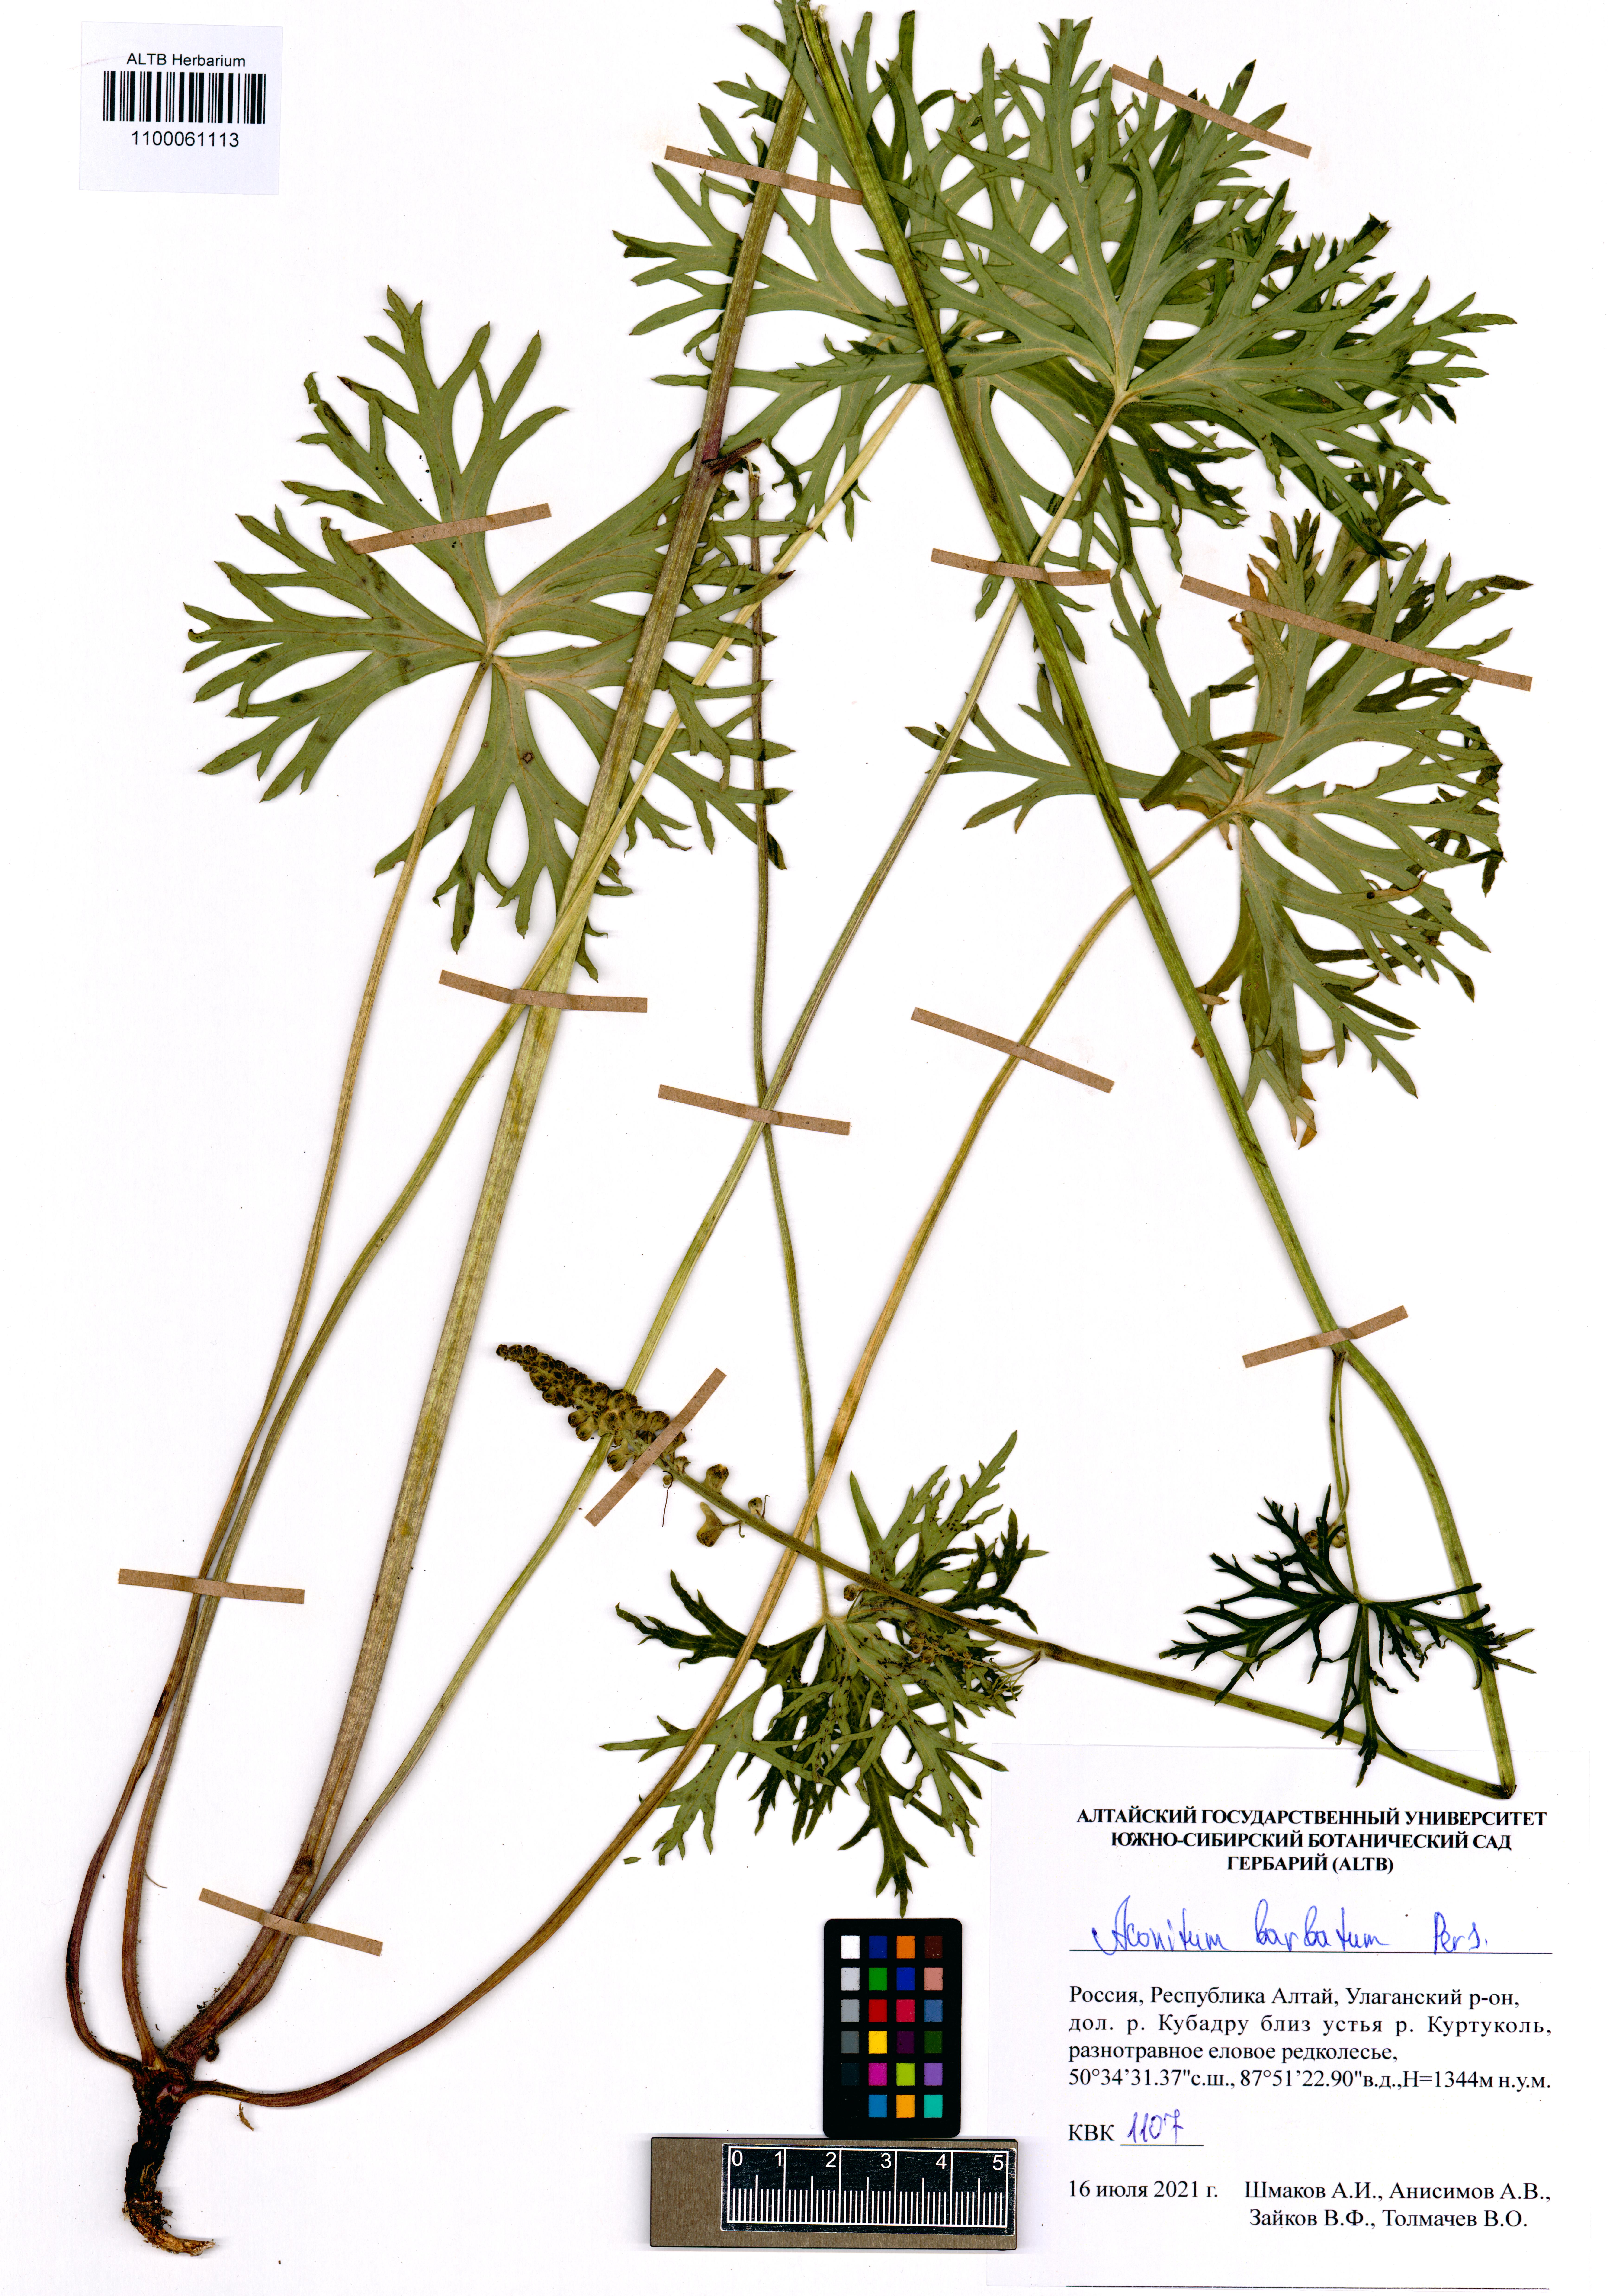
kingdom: Plantae
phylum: Tracheophyta
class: Magnoliopsida
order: Ranunculales
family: Ranunculaceae
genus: Aconitum
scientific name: Aconitum barbatum
